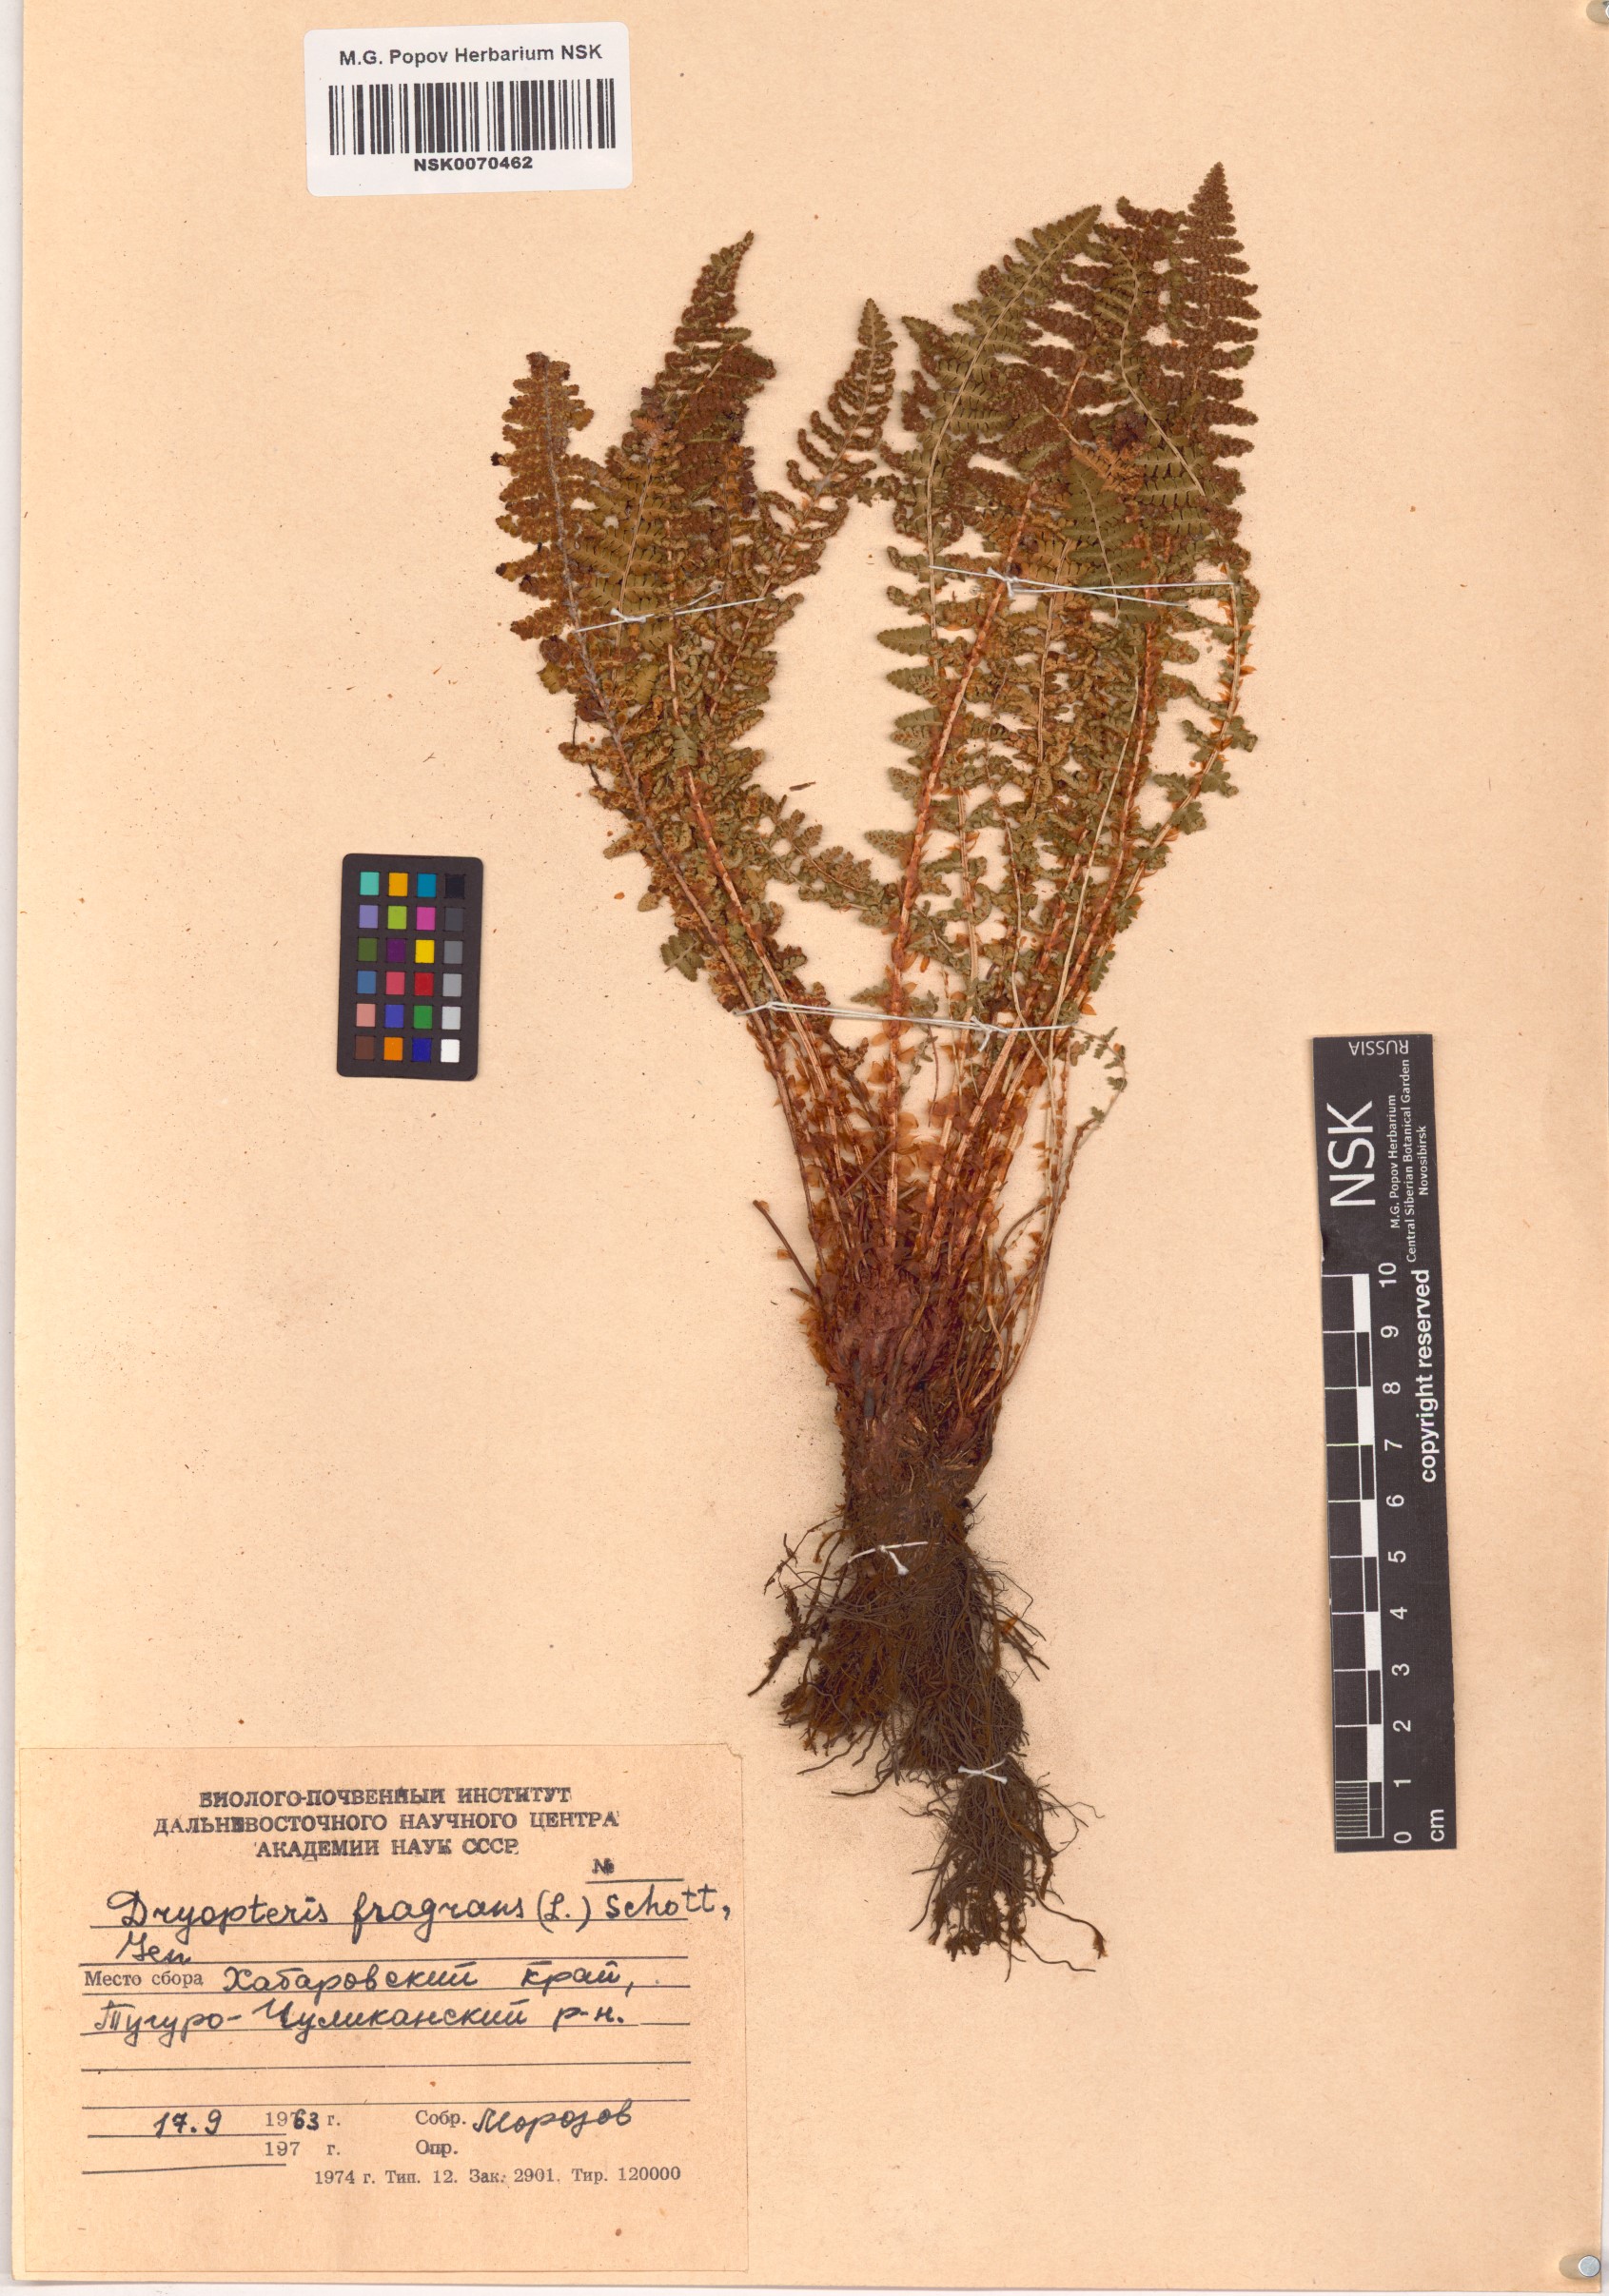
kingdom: Plantae
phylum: Tracheophyta
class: Polypodiopsida
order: Polypodiales
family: Dryopteridaceae
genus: Dryopteris
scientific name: Dryopteris fragrans
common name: Fragrant wood fern
